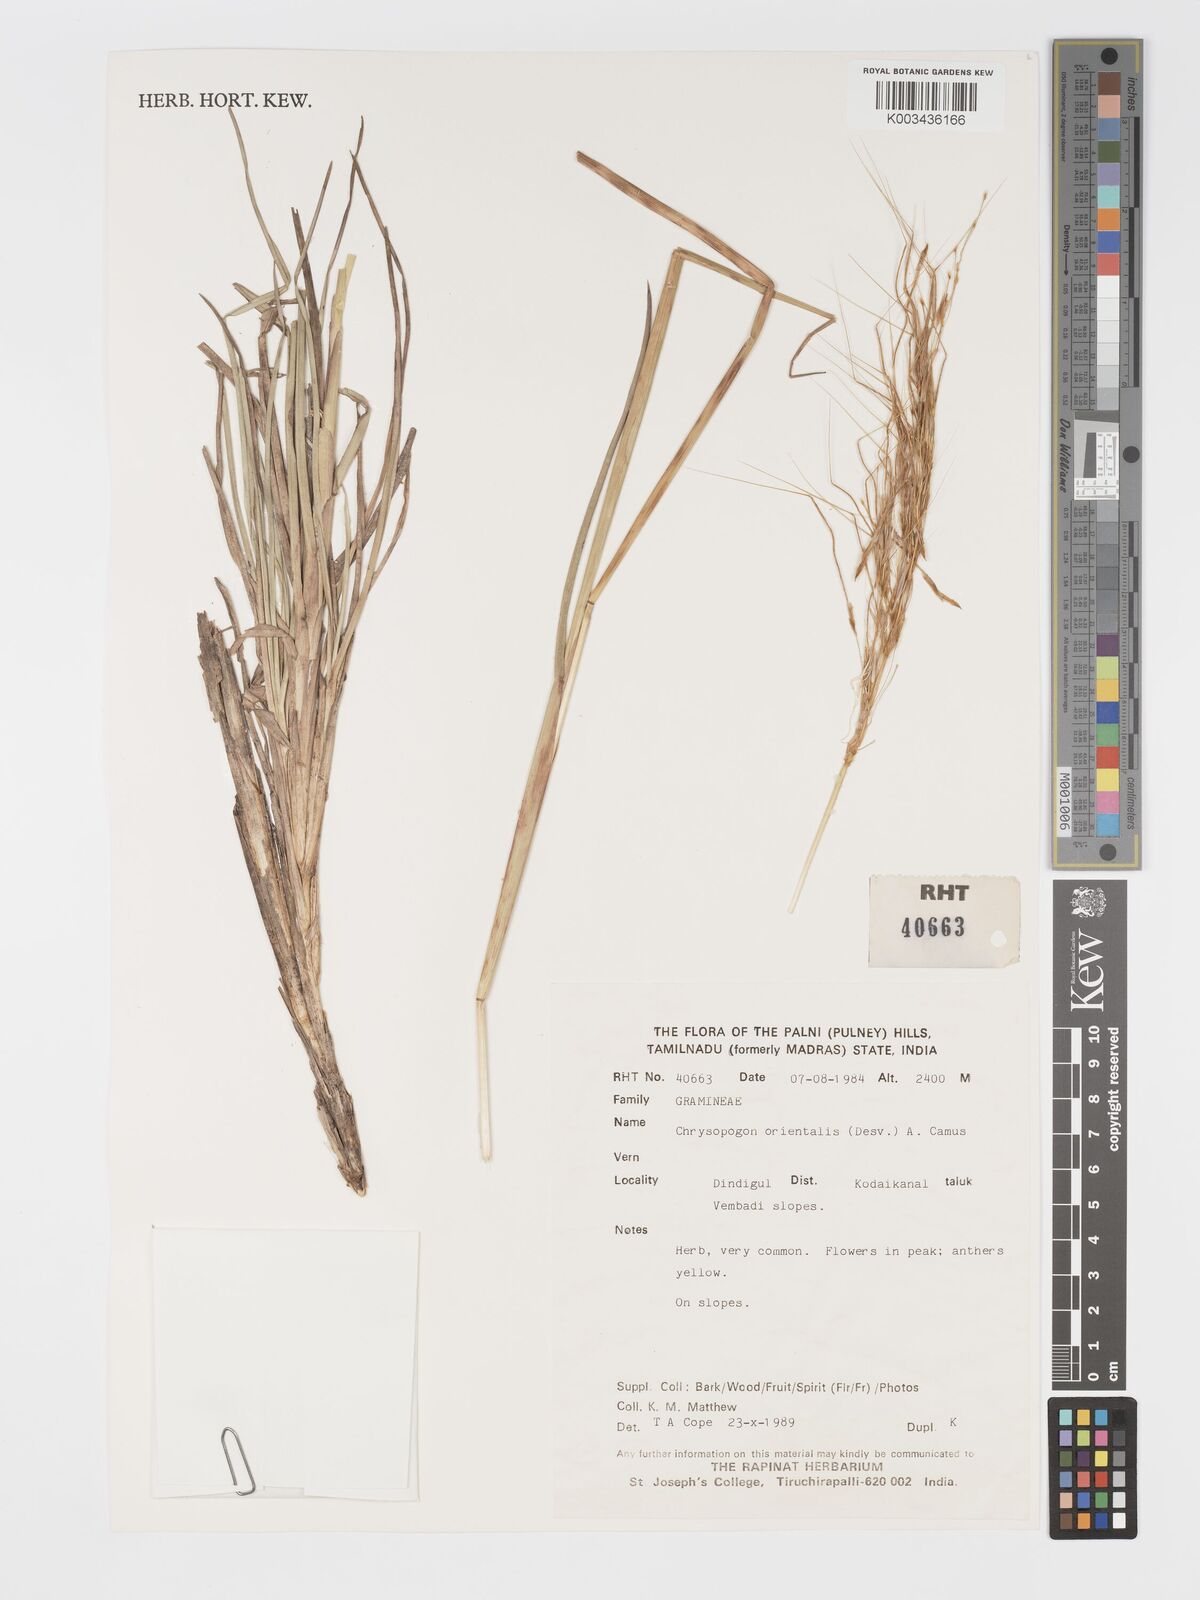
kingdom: Plantae
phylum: Tracheophyta
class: Liliopsida
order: Poales
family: Poaceae
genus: Chrysopogon
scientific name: Chrysopogon orientalis
